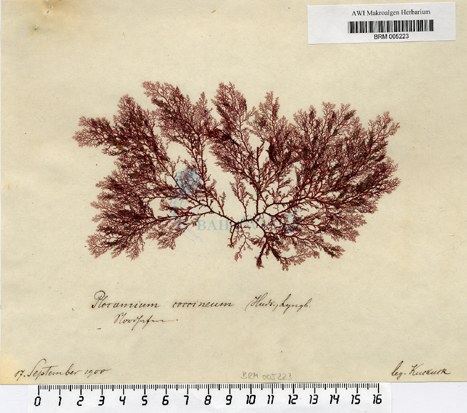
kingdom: Plantae
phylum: Rhodophyta
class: Florideophyceae
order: Plocamiales
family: Plocamiaceae
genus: Plocamium
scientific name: Plocamium cartilagineum
